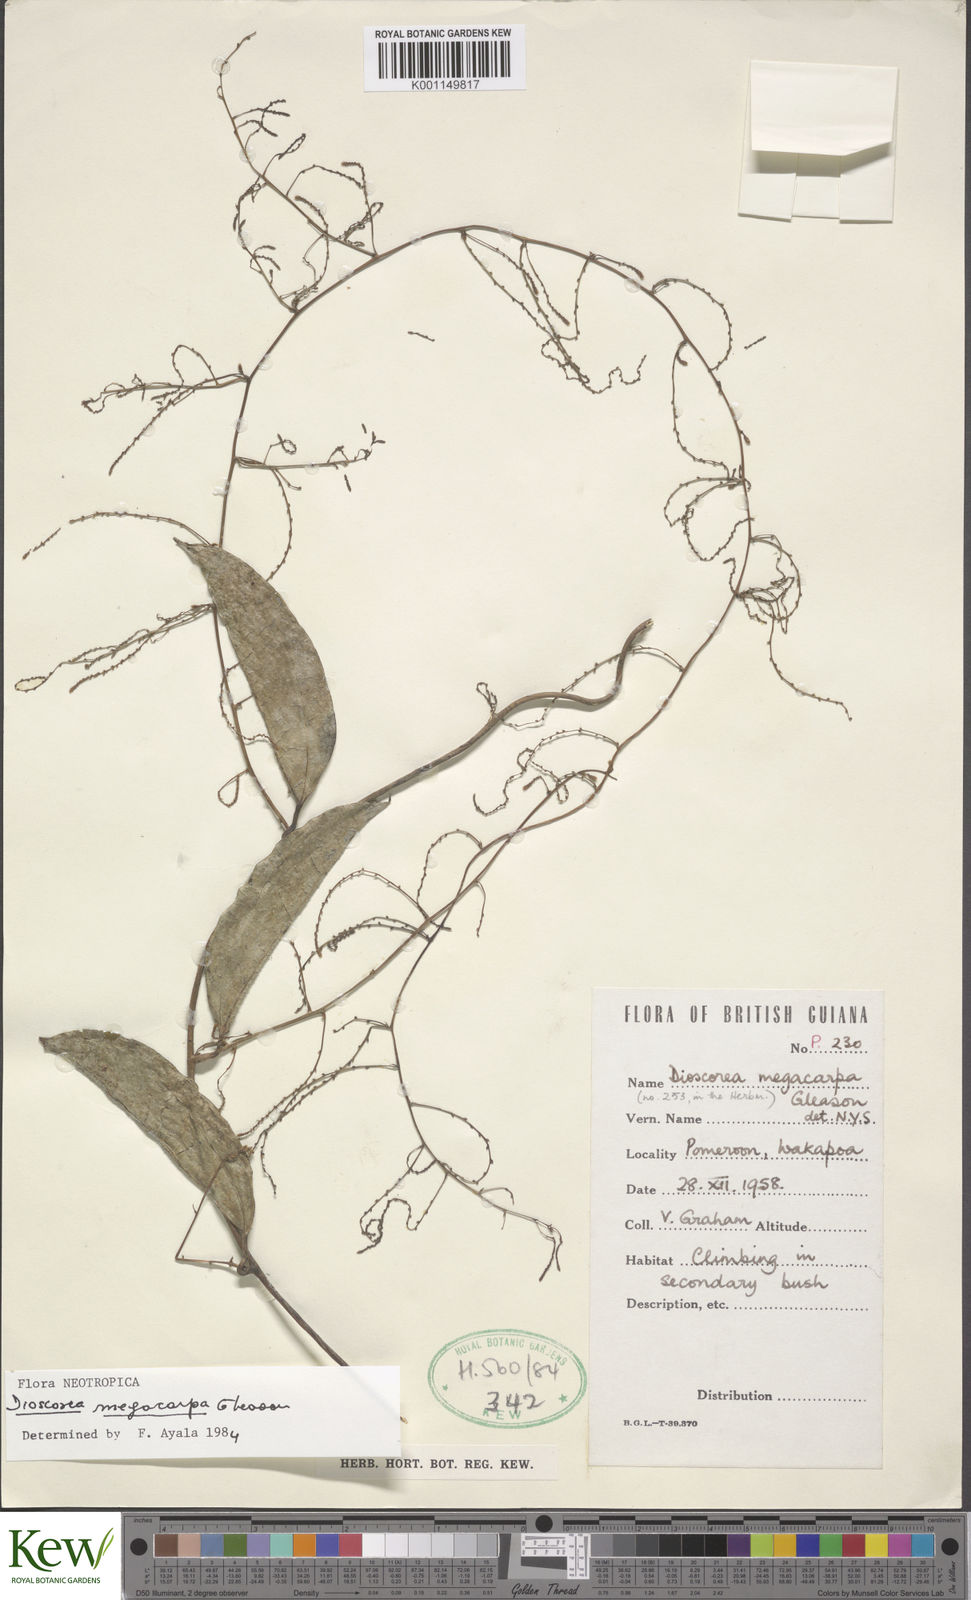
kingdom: Plantae
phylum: Tracheophyta
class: Liliopsida
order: Dioscoreales
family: Dioscoreaceae
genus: Dioscorea
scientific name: Dioscorea
